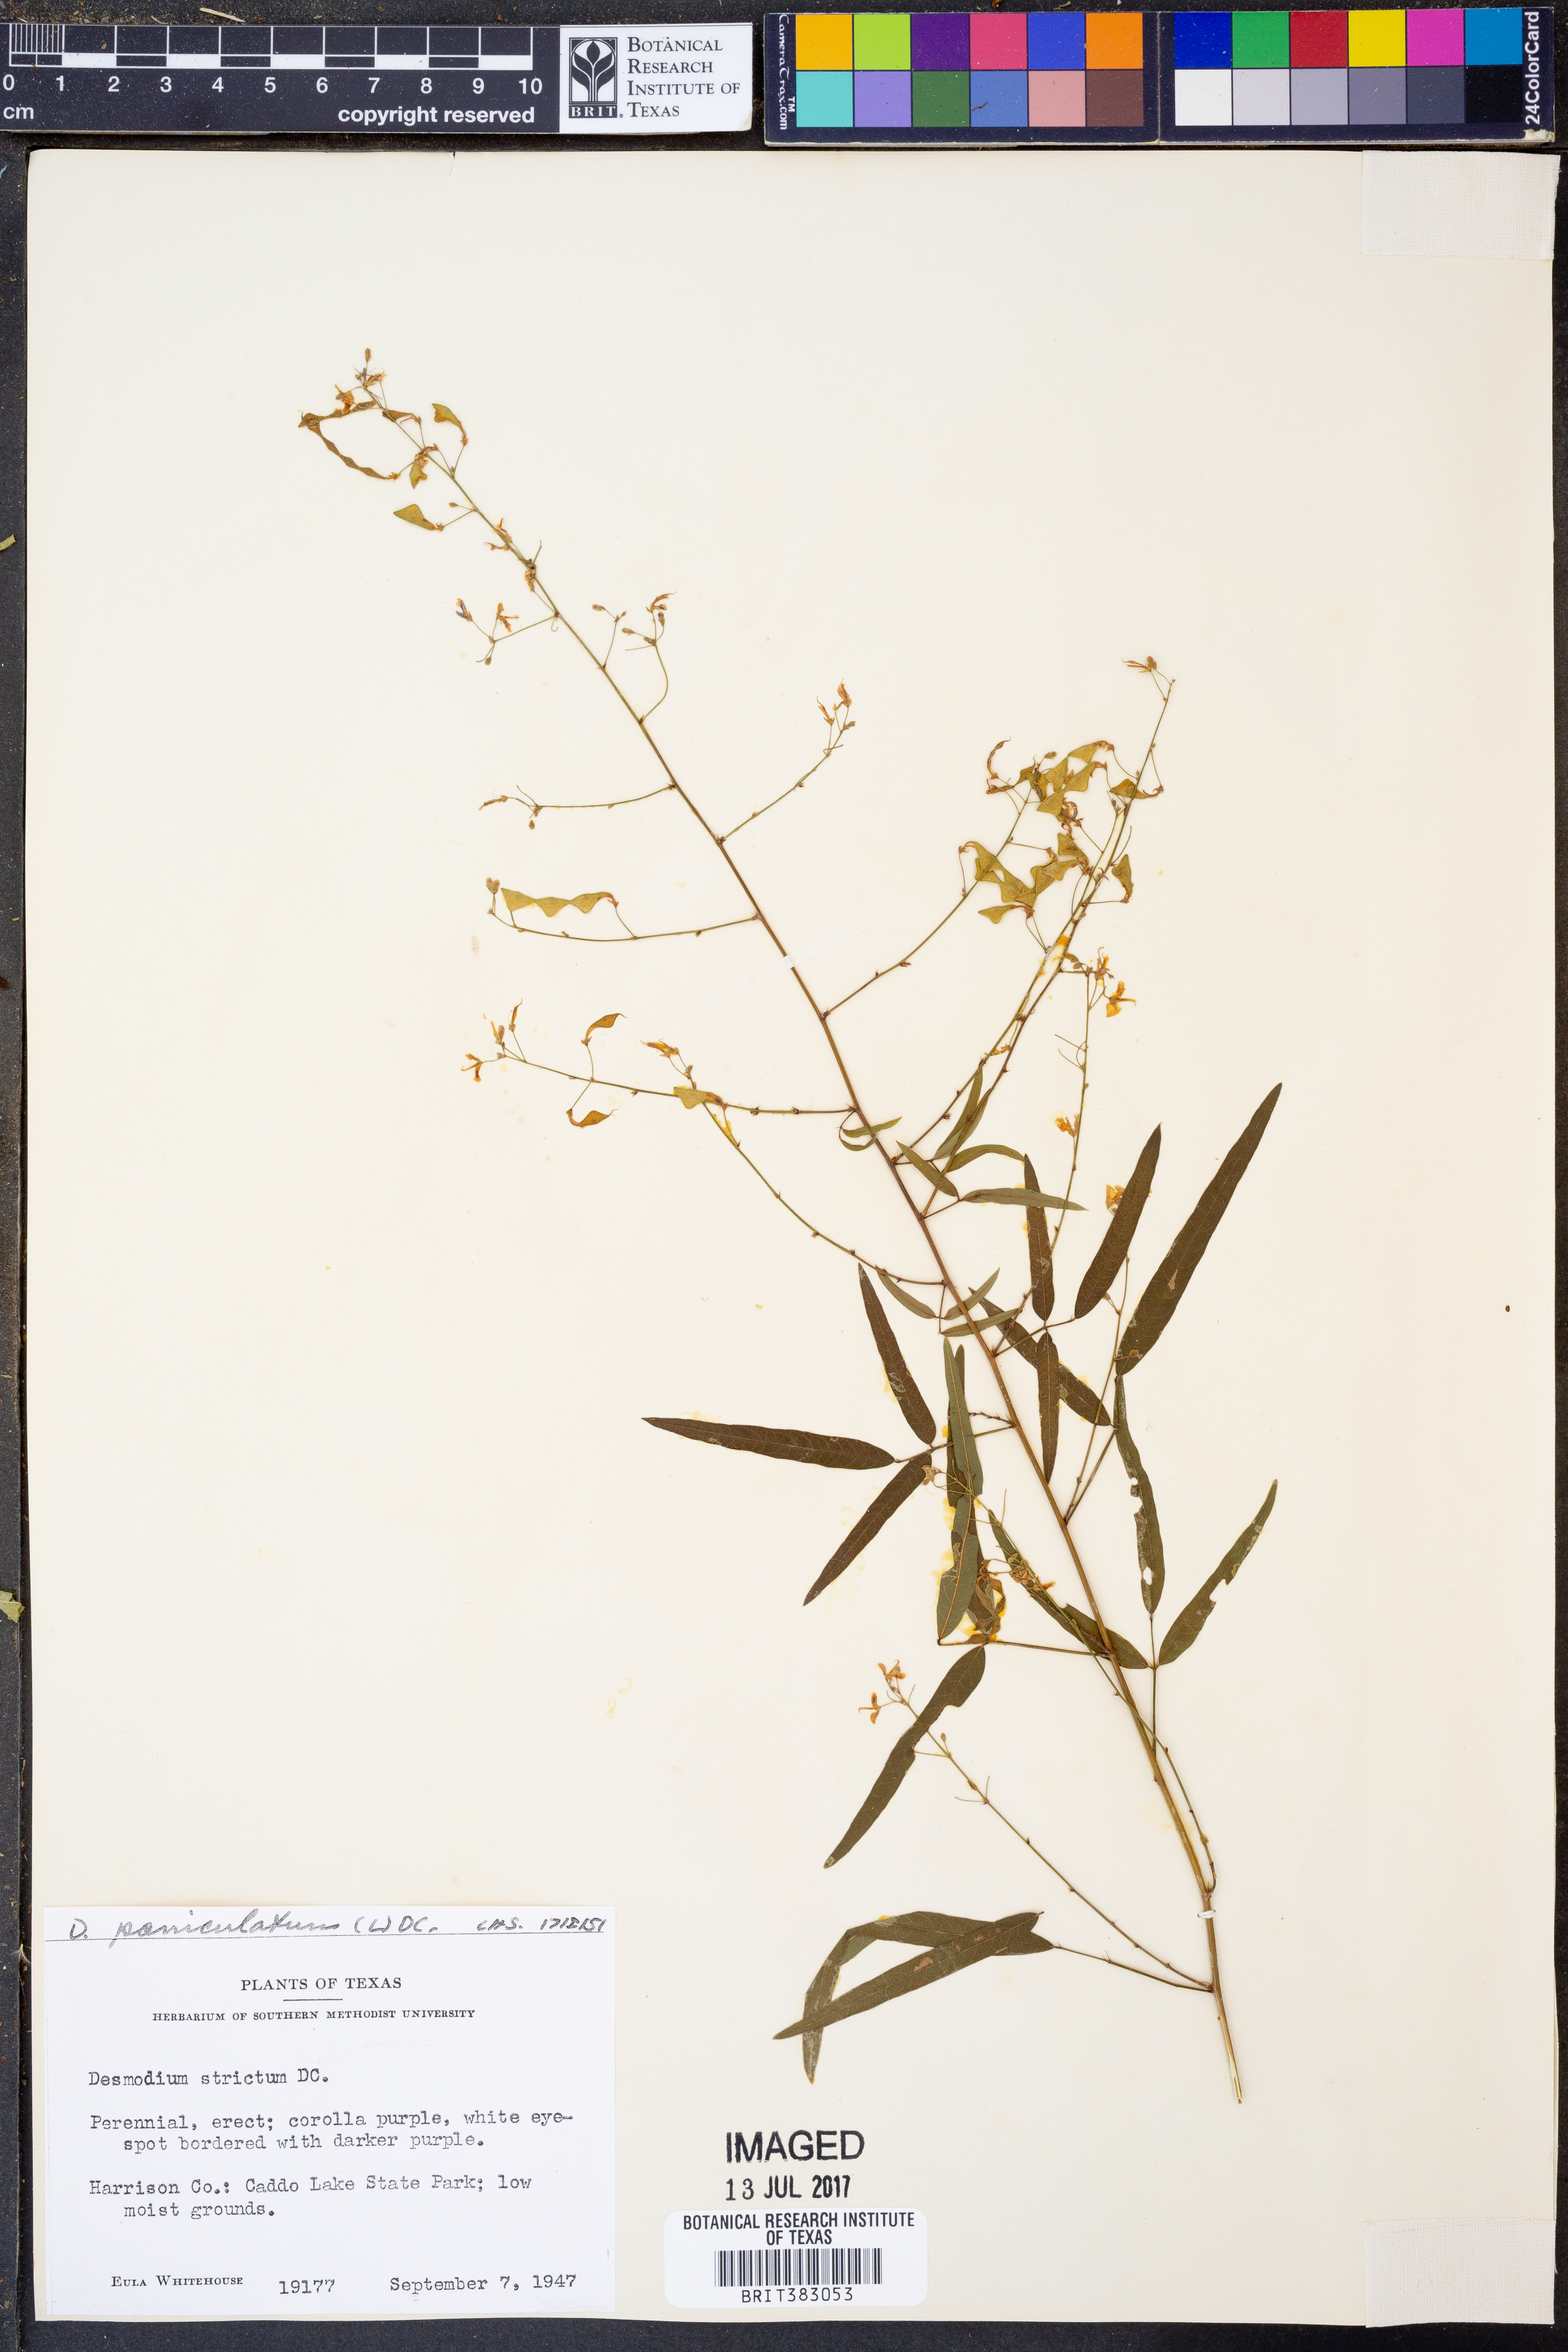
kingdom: Plantae
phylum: Tracheophyta
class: Magnoliopsida
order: Fabales
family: Fabaceae
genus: Desmodium
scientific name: Desmodium paniculatum
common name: Panicled tick-clover
